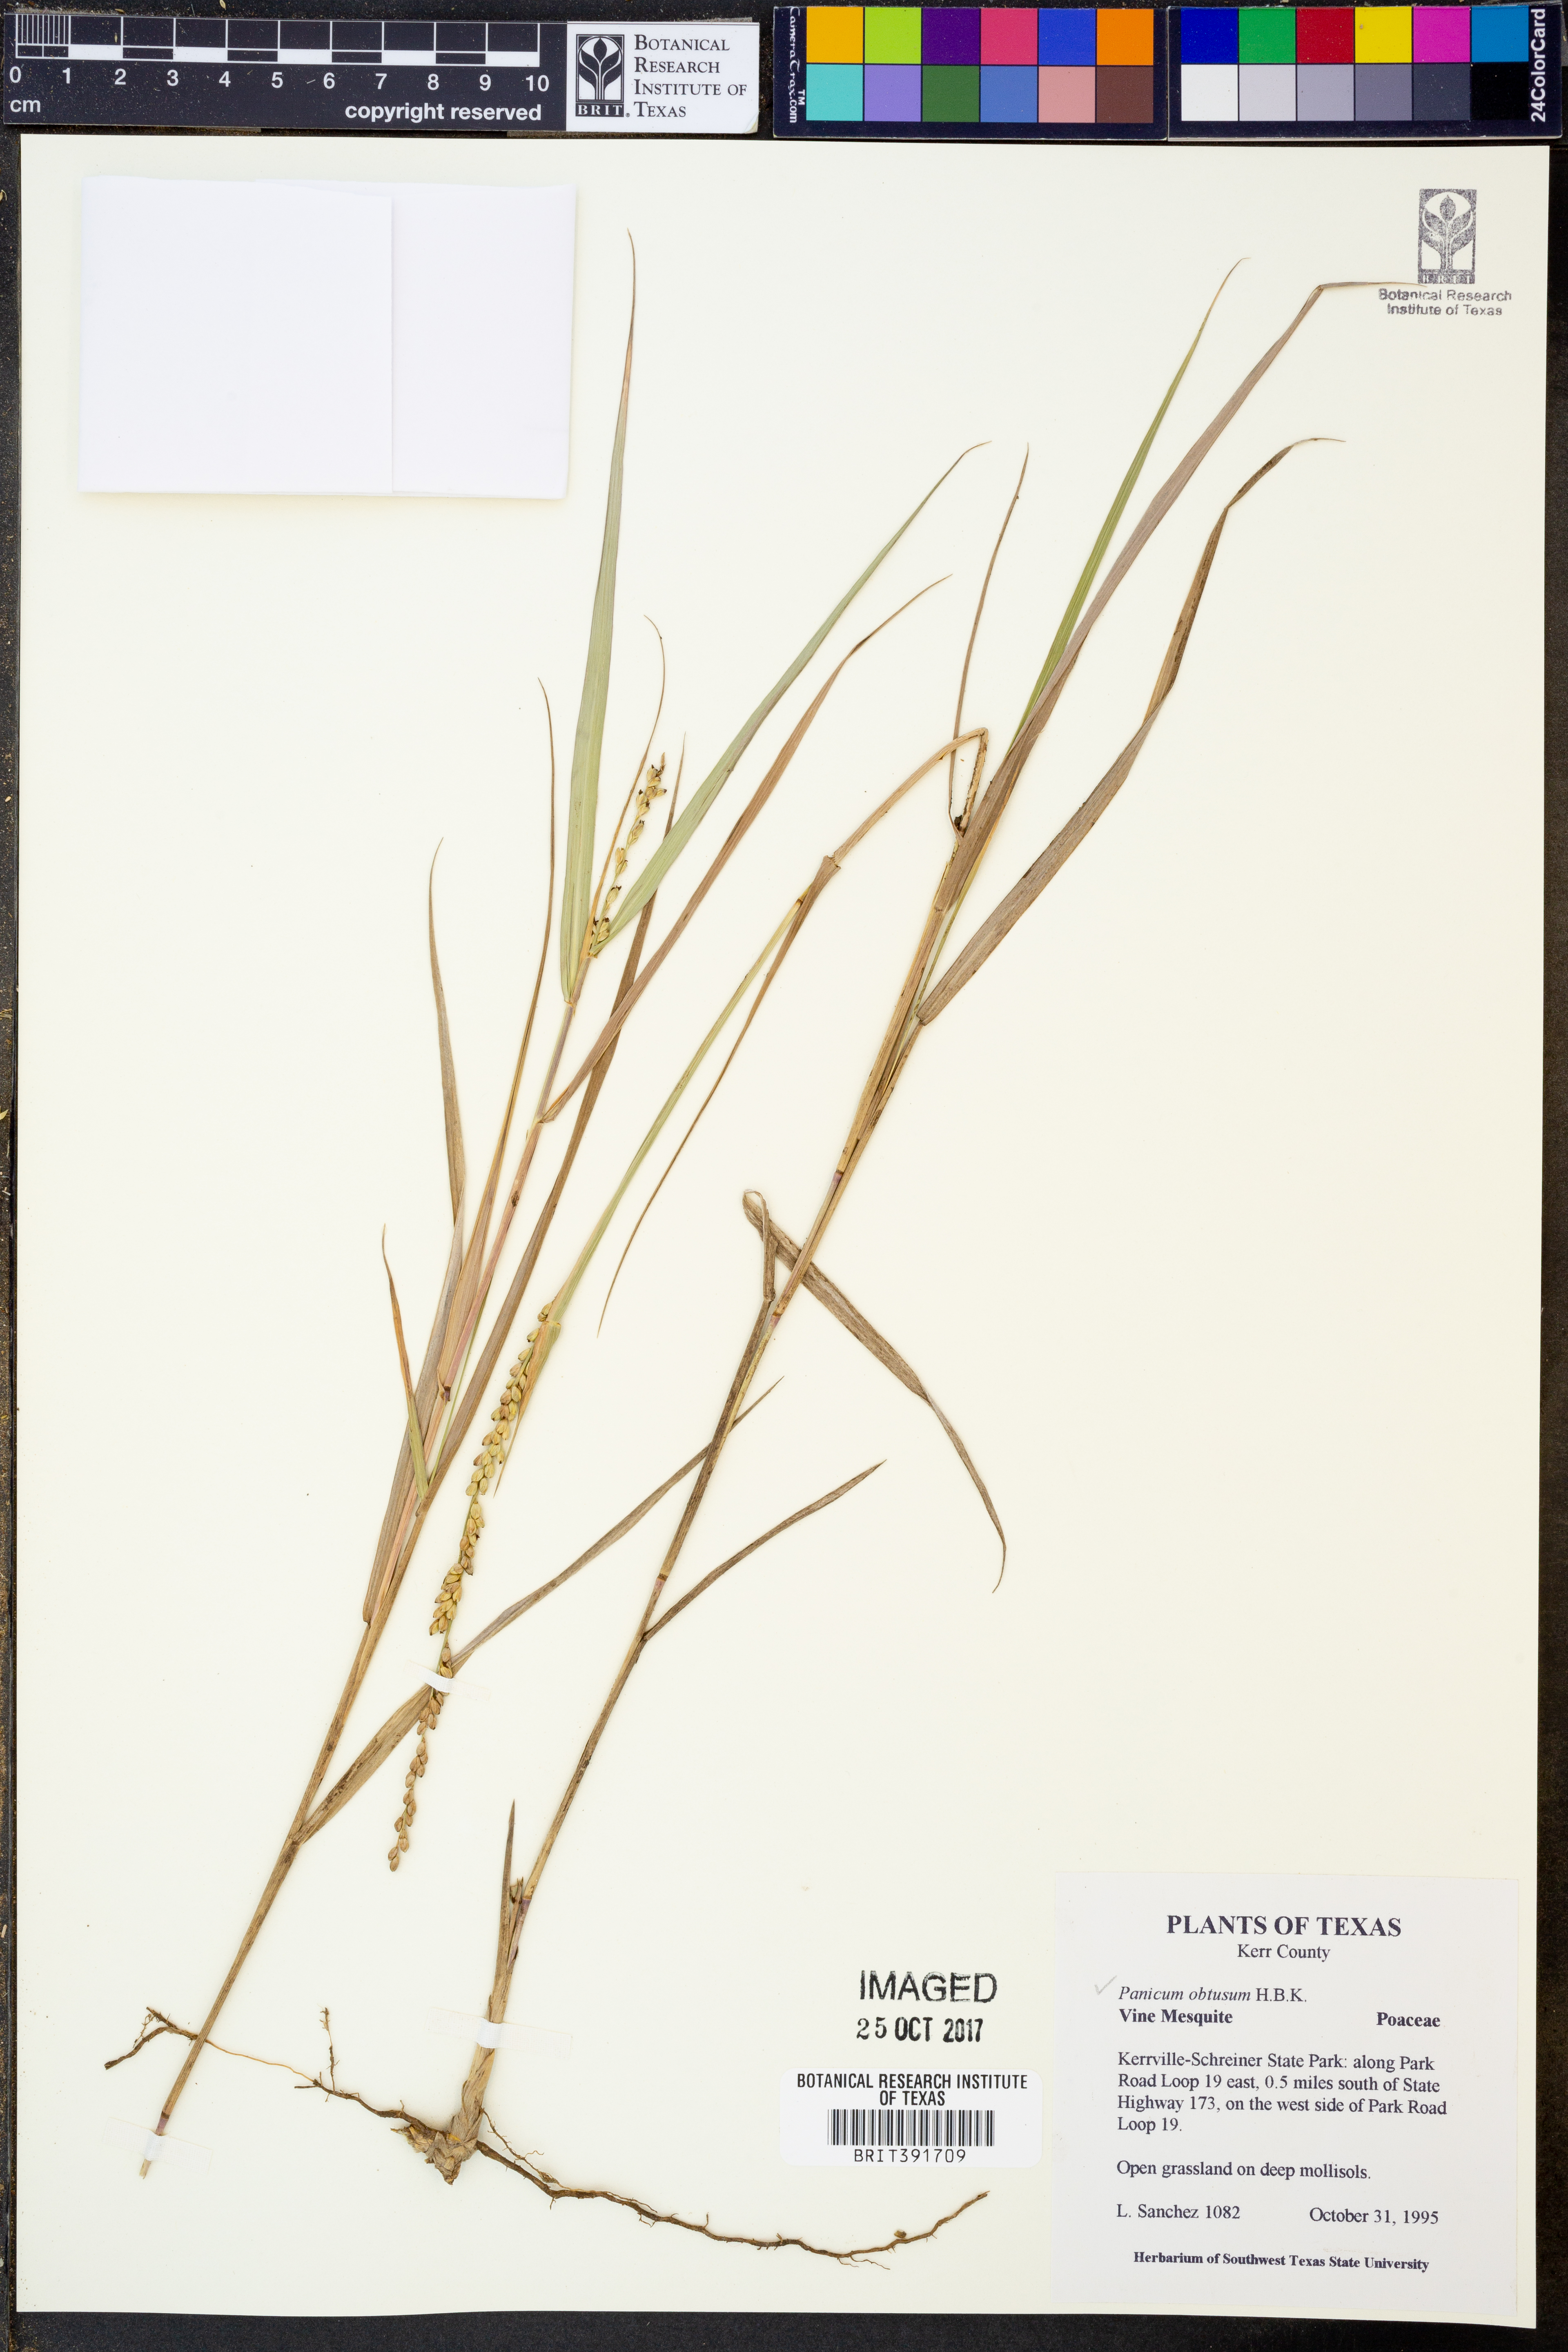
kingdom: Plantae
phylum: Tracheophyta
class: Liliopsida
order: Poales
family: Poaceae
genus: Hopia
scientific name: Hopia obtusa
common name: Vine-mesquite
